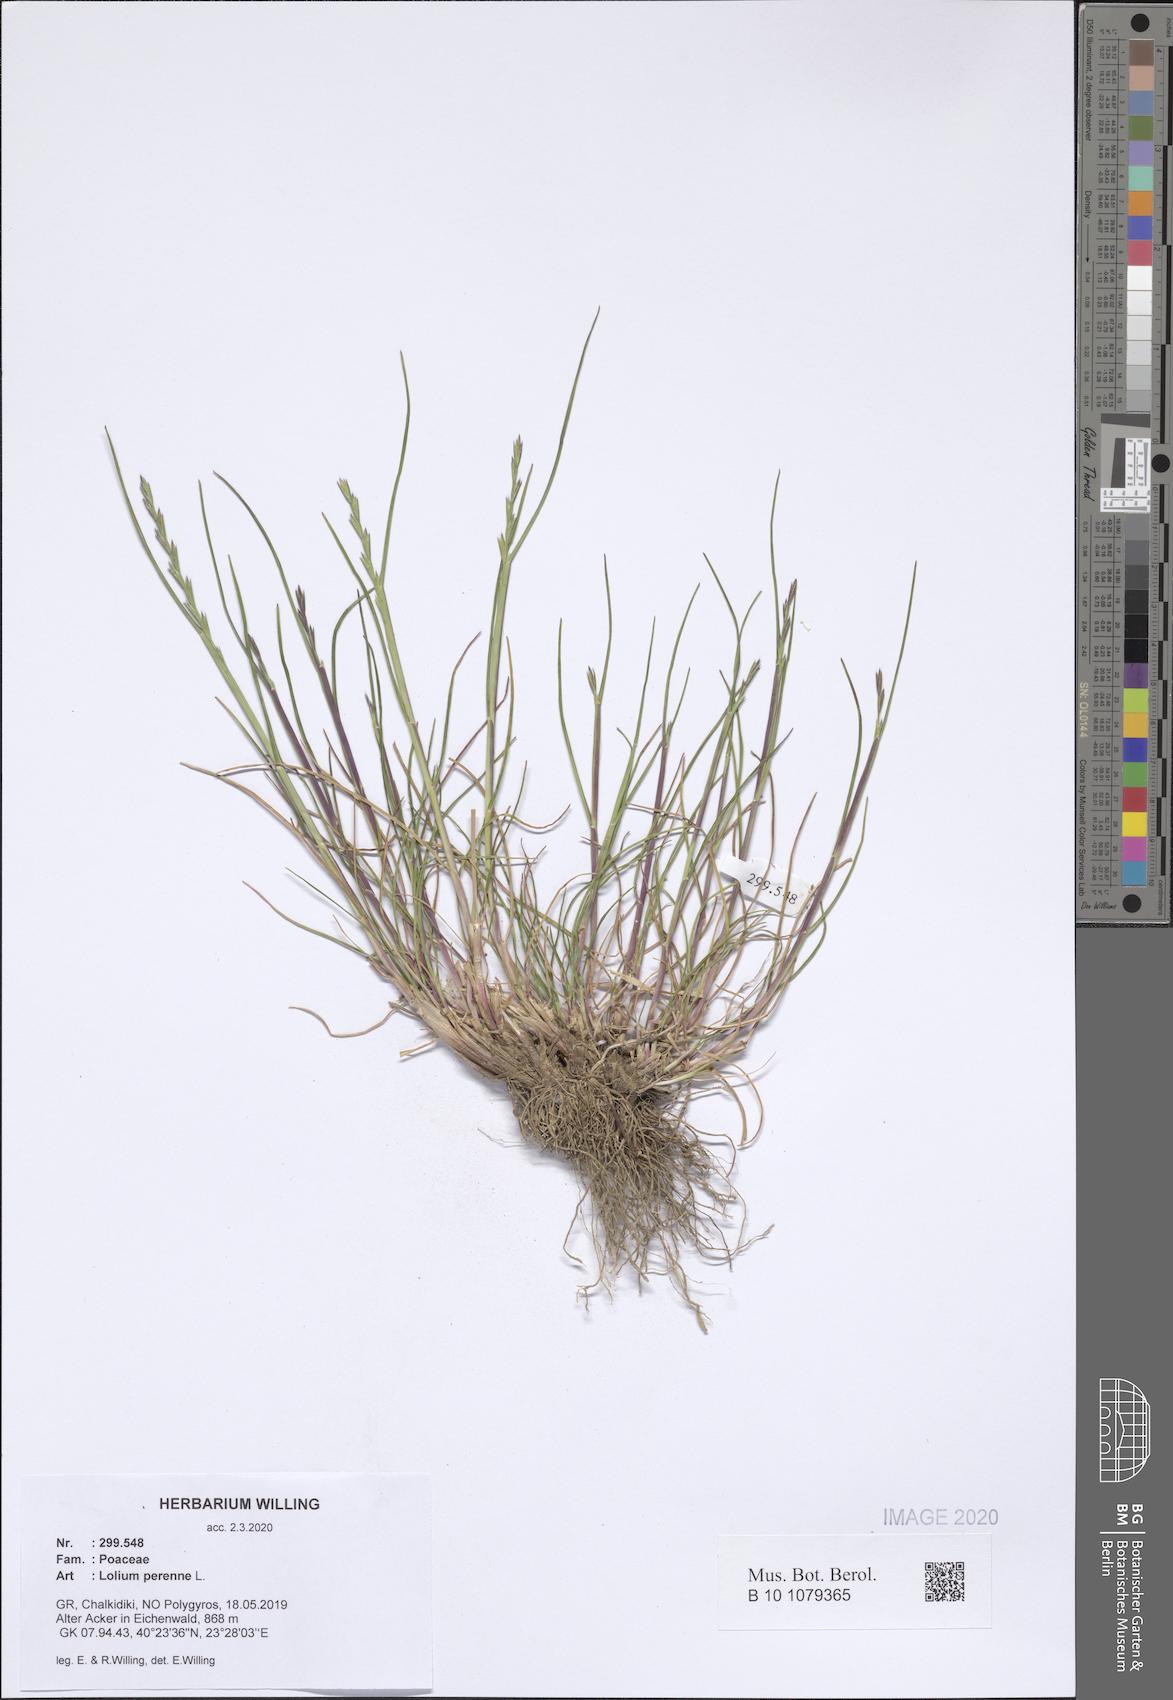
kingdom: Plantae
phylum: Tracheophyta
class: Liliopsida
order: Poales
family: Poaceae
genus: Lolium
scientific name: Lolium perenne
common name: Perennial ryegrass
